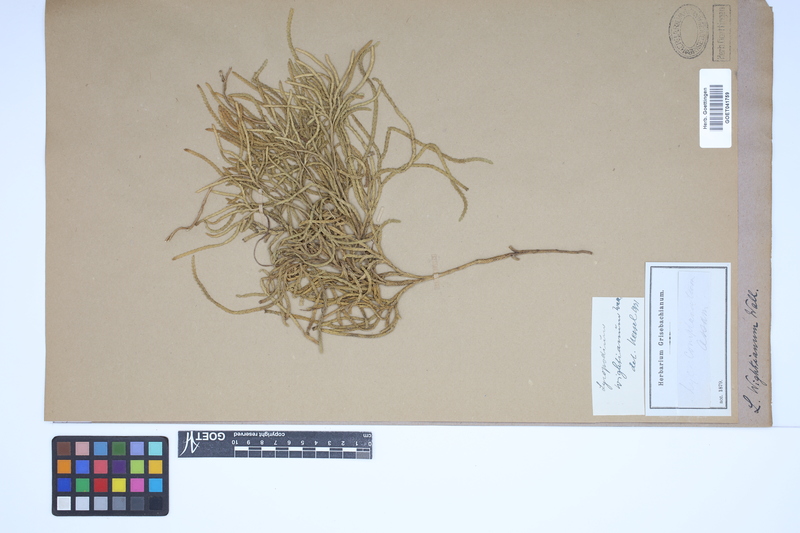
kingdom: Plantae
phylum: Tracheophyta
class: Lycopodiopsida
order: Lycopodiales
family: Lycopodiaceae
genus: Diphasiastrum
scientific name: Diphasiastrum wightianum
